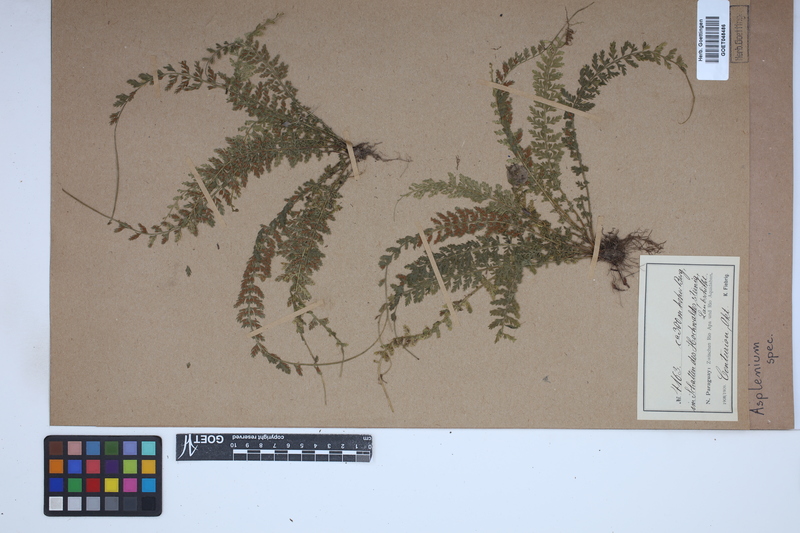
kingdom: Plantae
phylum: Tracheophyta
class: Polypodiopsida
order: Polypodiales
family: Aspleniaceae
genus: Asplenium
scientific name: Asplenium
